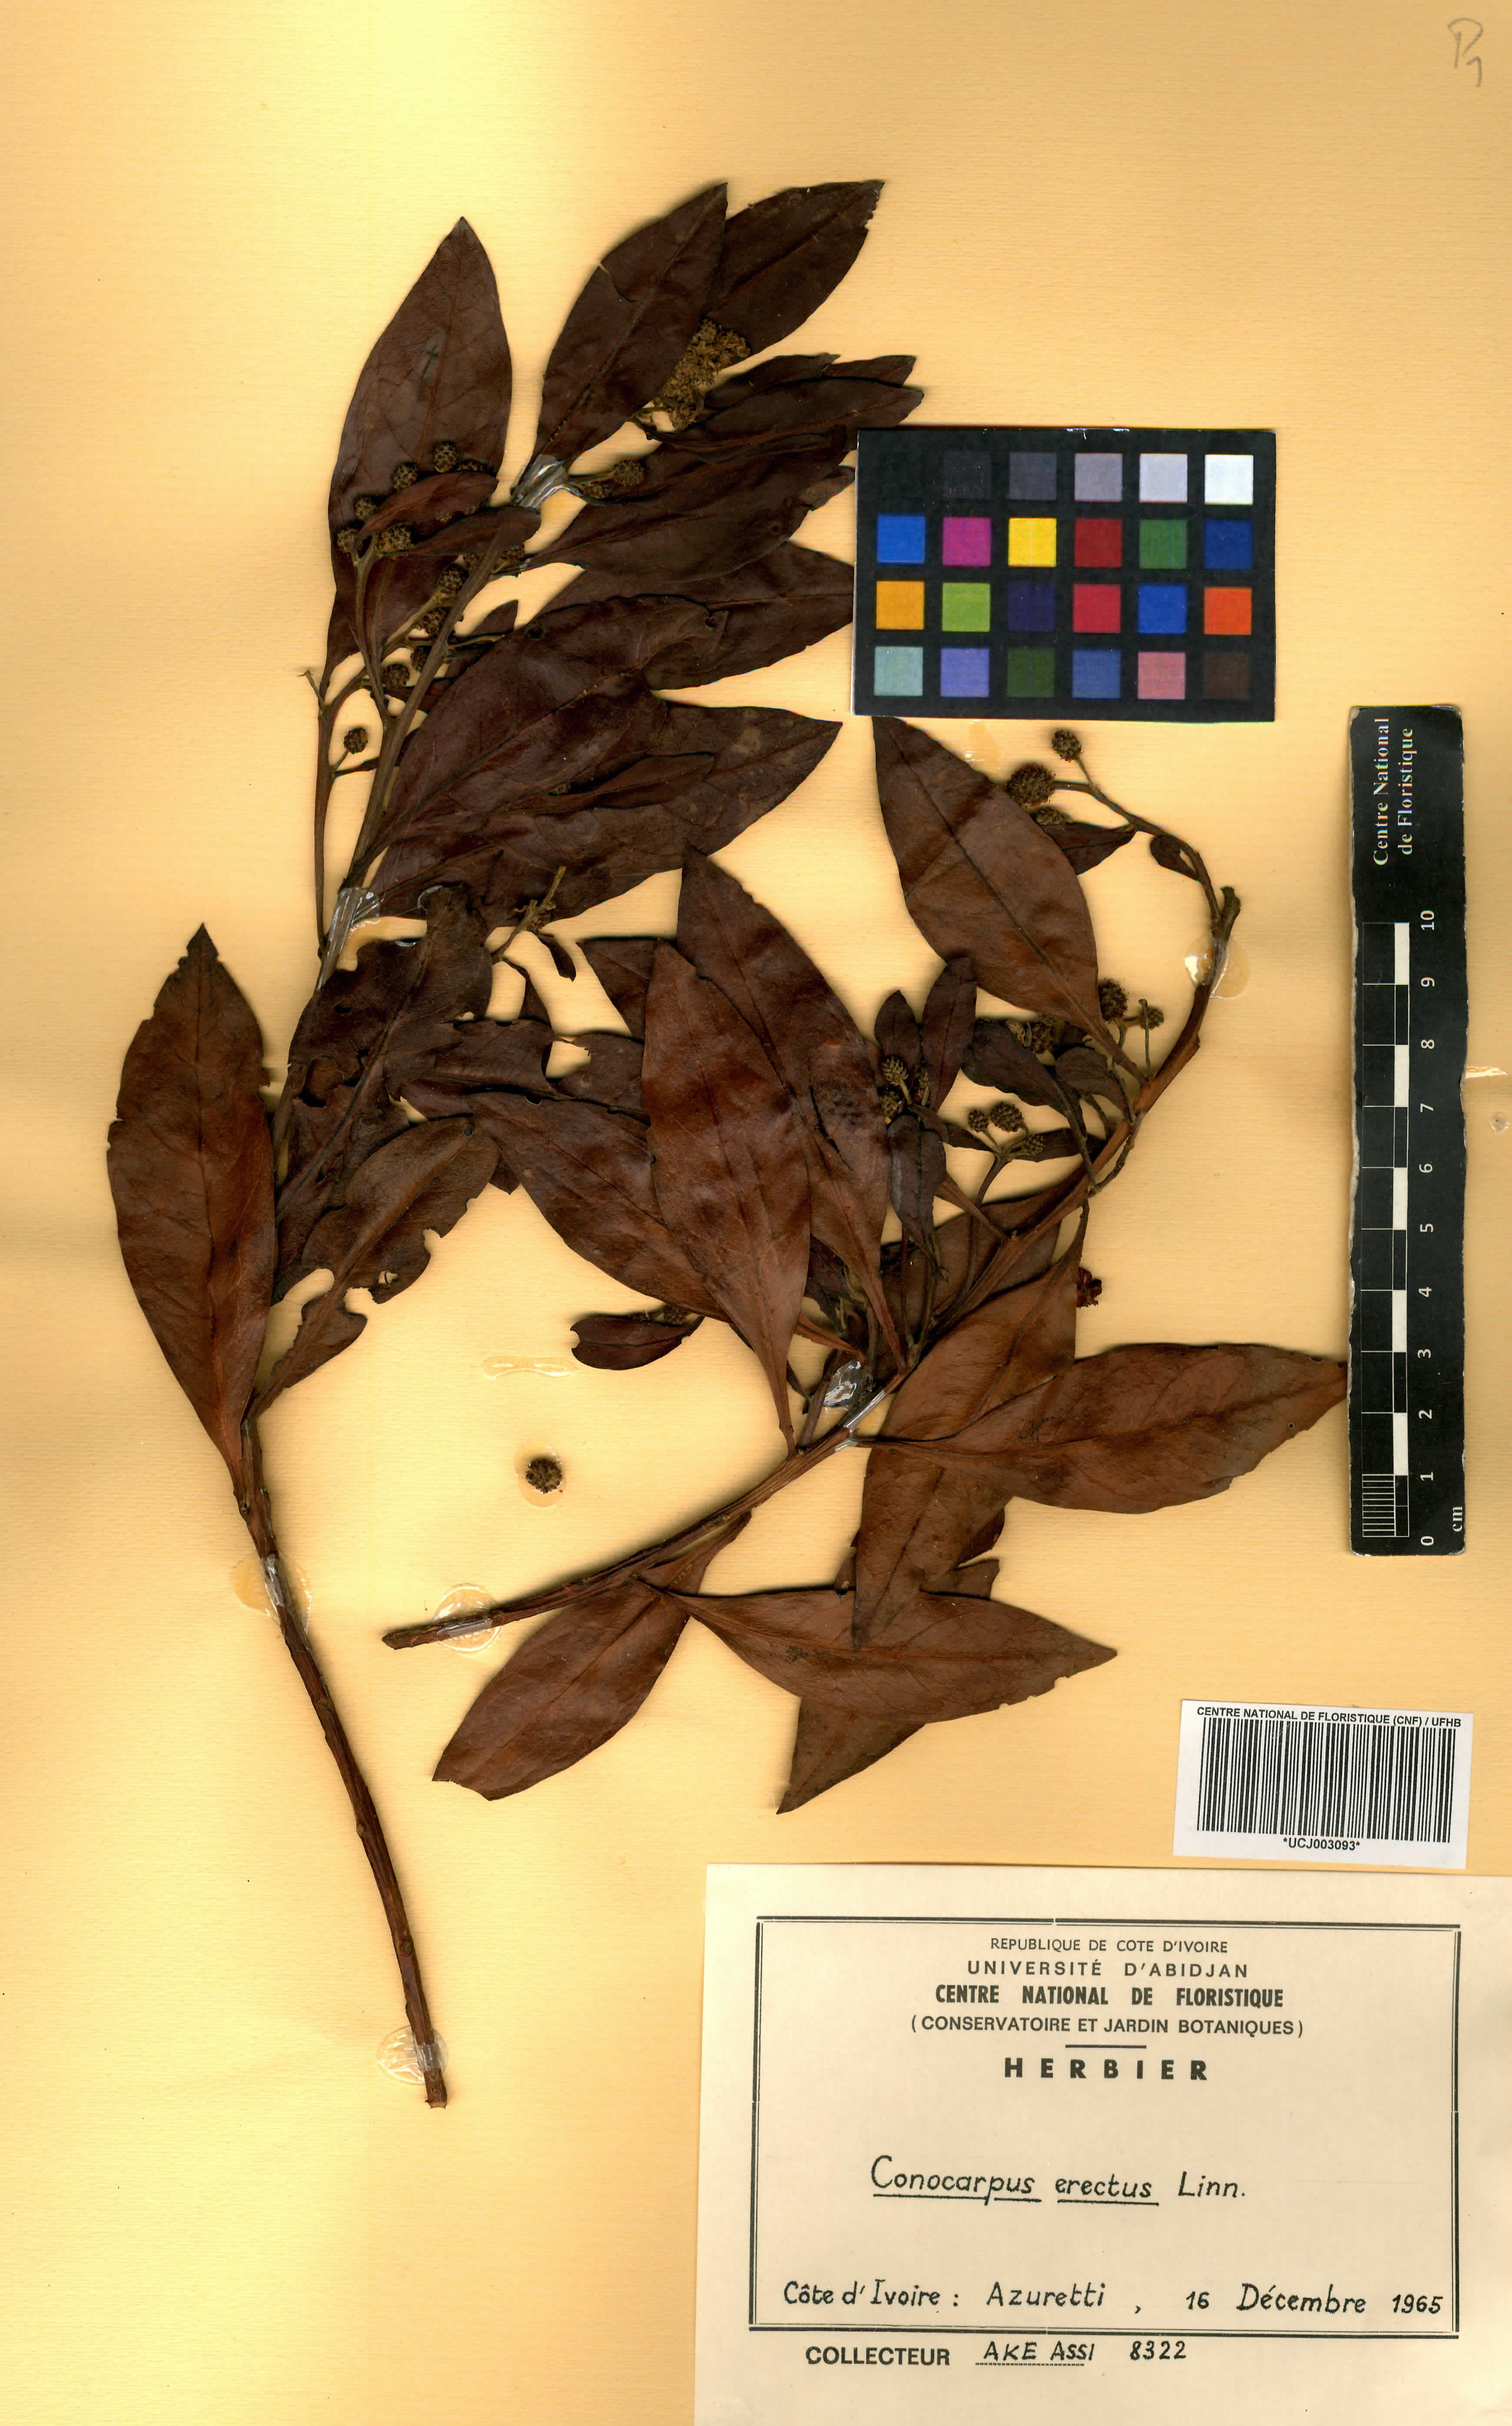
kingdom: Plantae
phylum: Tracheophyta
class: Magnoliopsida
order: Myrtales
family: Combretaceae
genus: Conocarpus
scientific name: Conocarpus erectus
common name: Button mangrove
